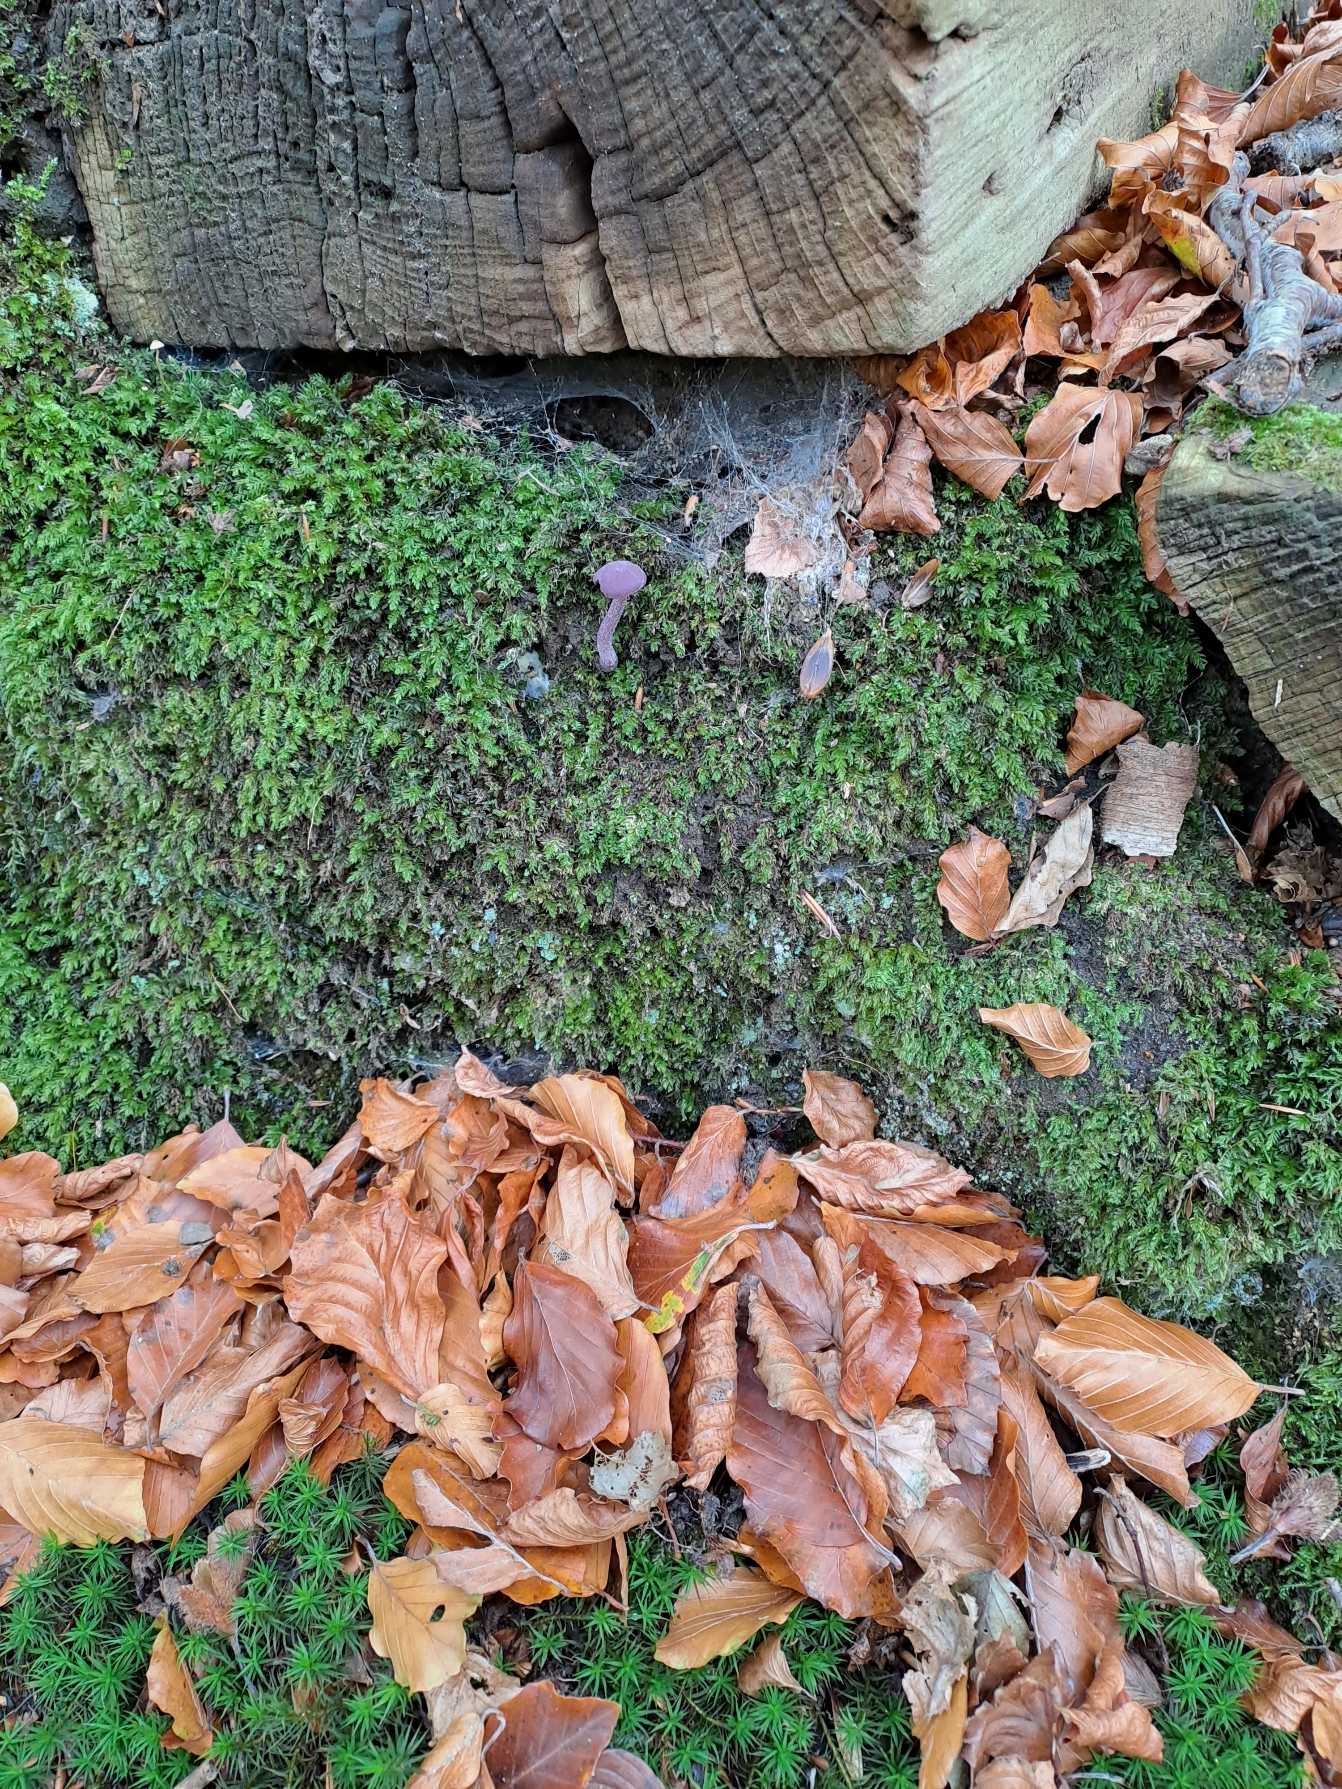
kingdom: Fungi
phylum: Basidiomycota
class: Agaricomycetes
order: Agaricales
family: Hydnangiaceae
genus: Laccaria
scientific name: Laccaria amethystina
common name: Violet ametysthat
